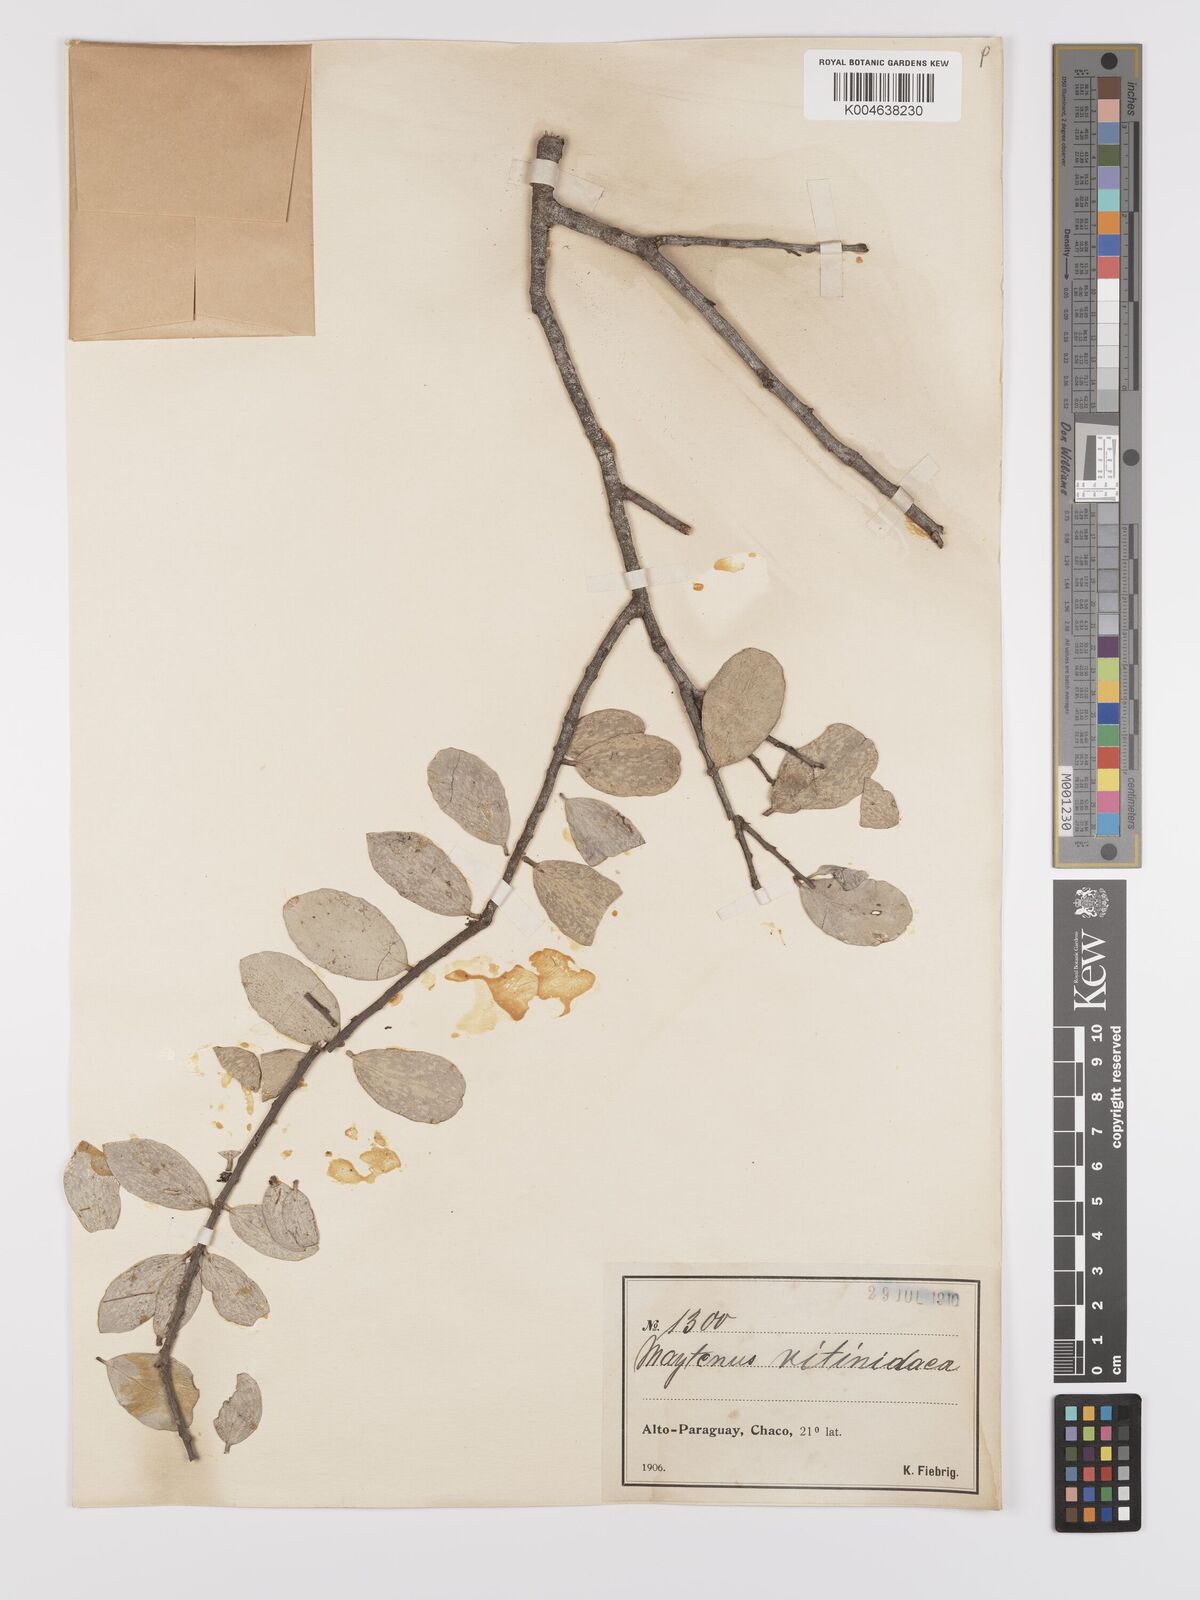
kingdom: Plantae
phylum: Tracheophyta
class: Magnoliopsida
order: Celastrales
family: Celastraceae
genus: Tricerma
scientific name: Tricerma vitis-idaeum
